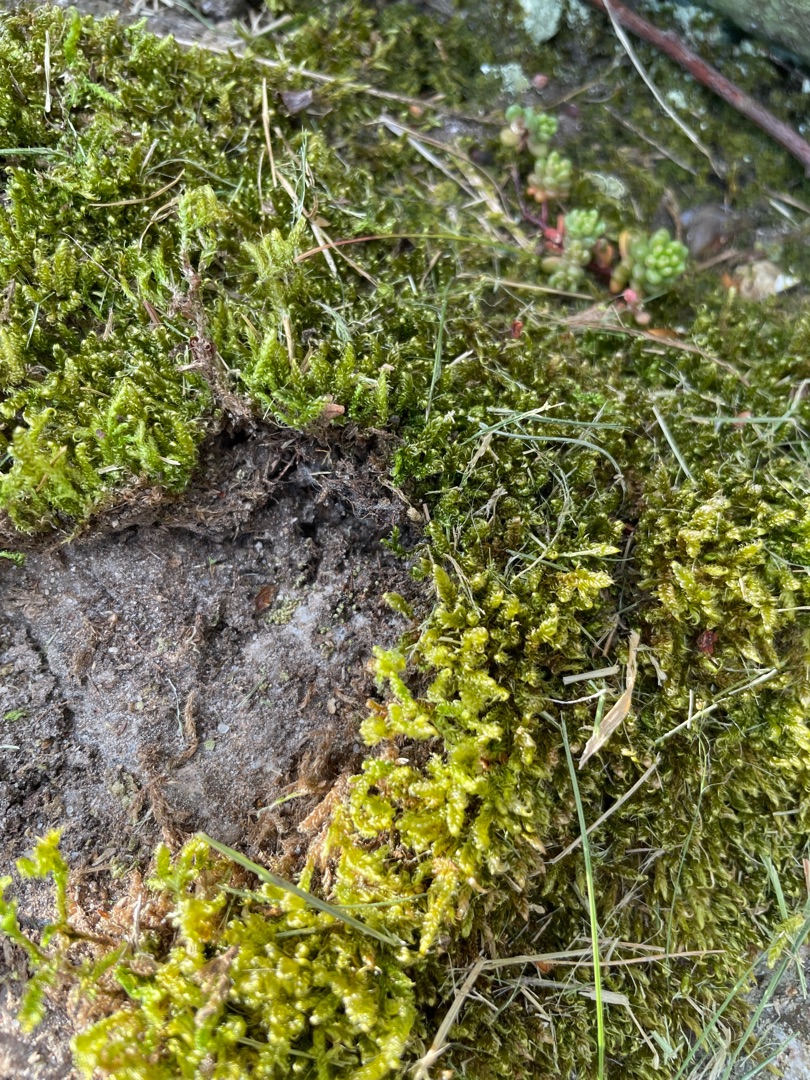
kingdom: Plantae
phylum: Bryophyta
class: Bryopsida
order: Hypnales
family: Hypnaceae
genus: Hypnum
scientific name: Hypnum cupressiforme
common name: Almindelig cypresmos
